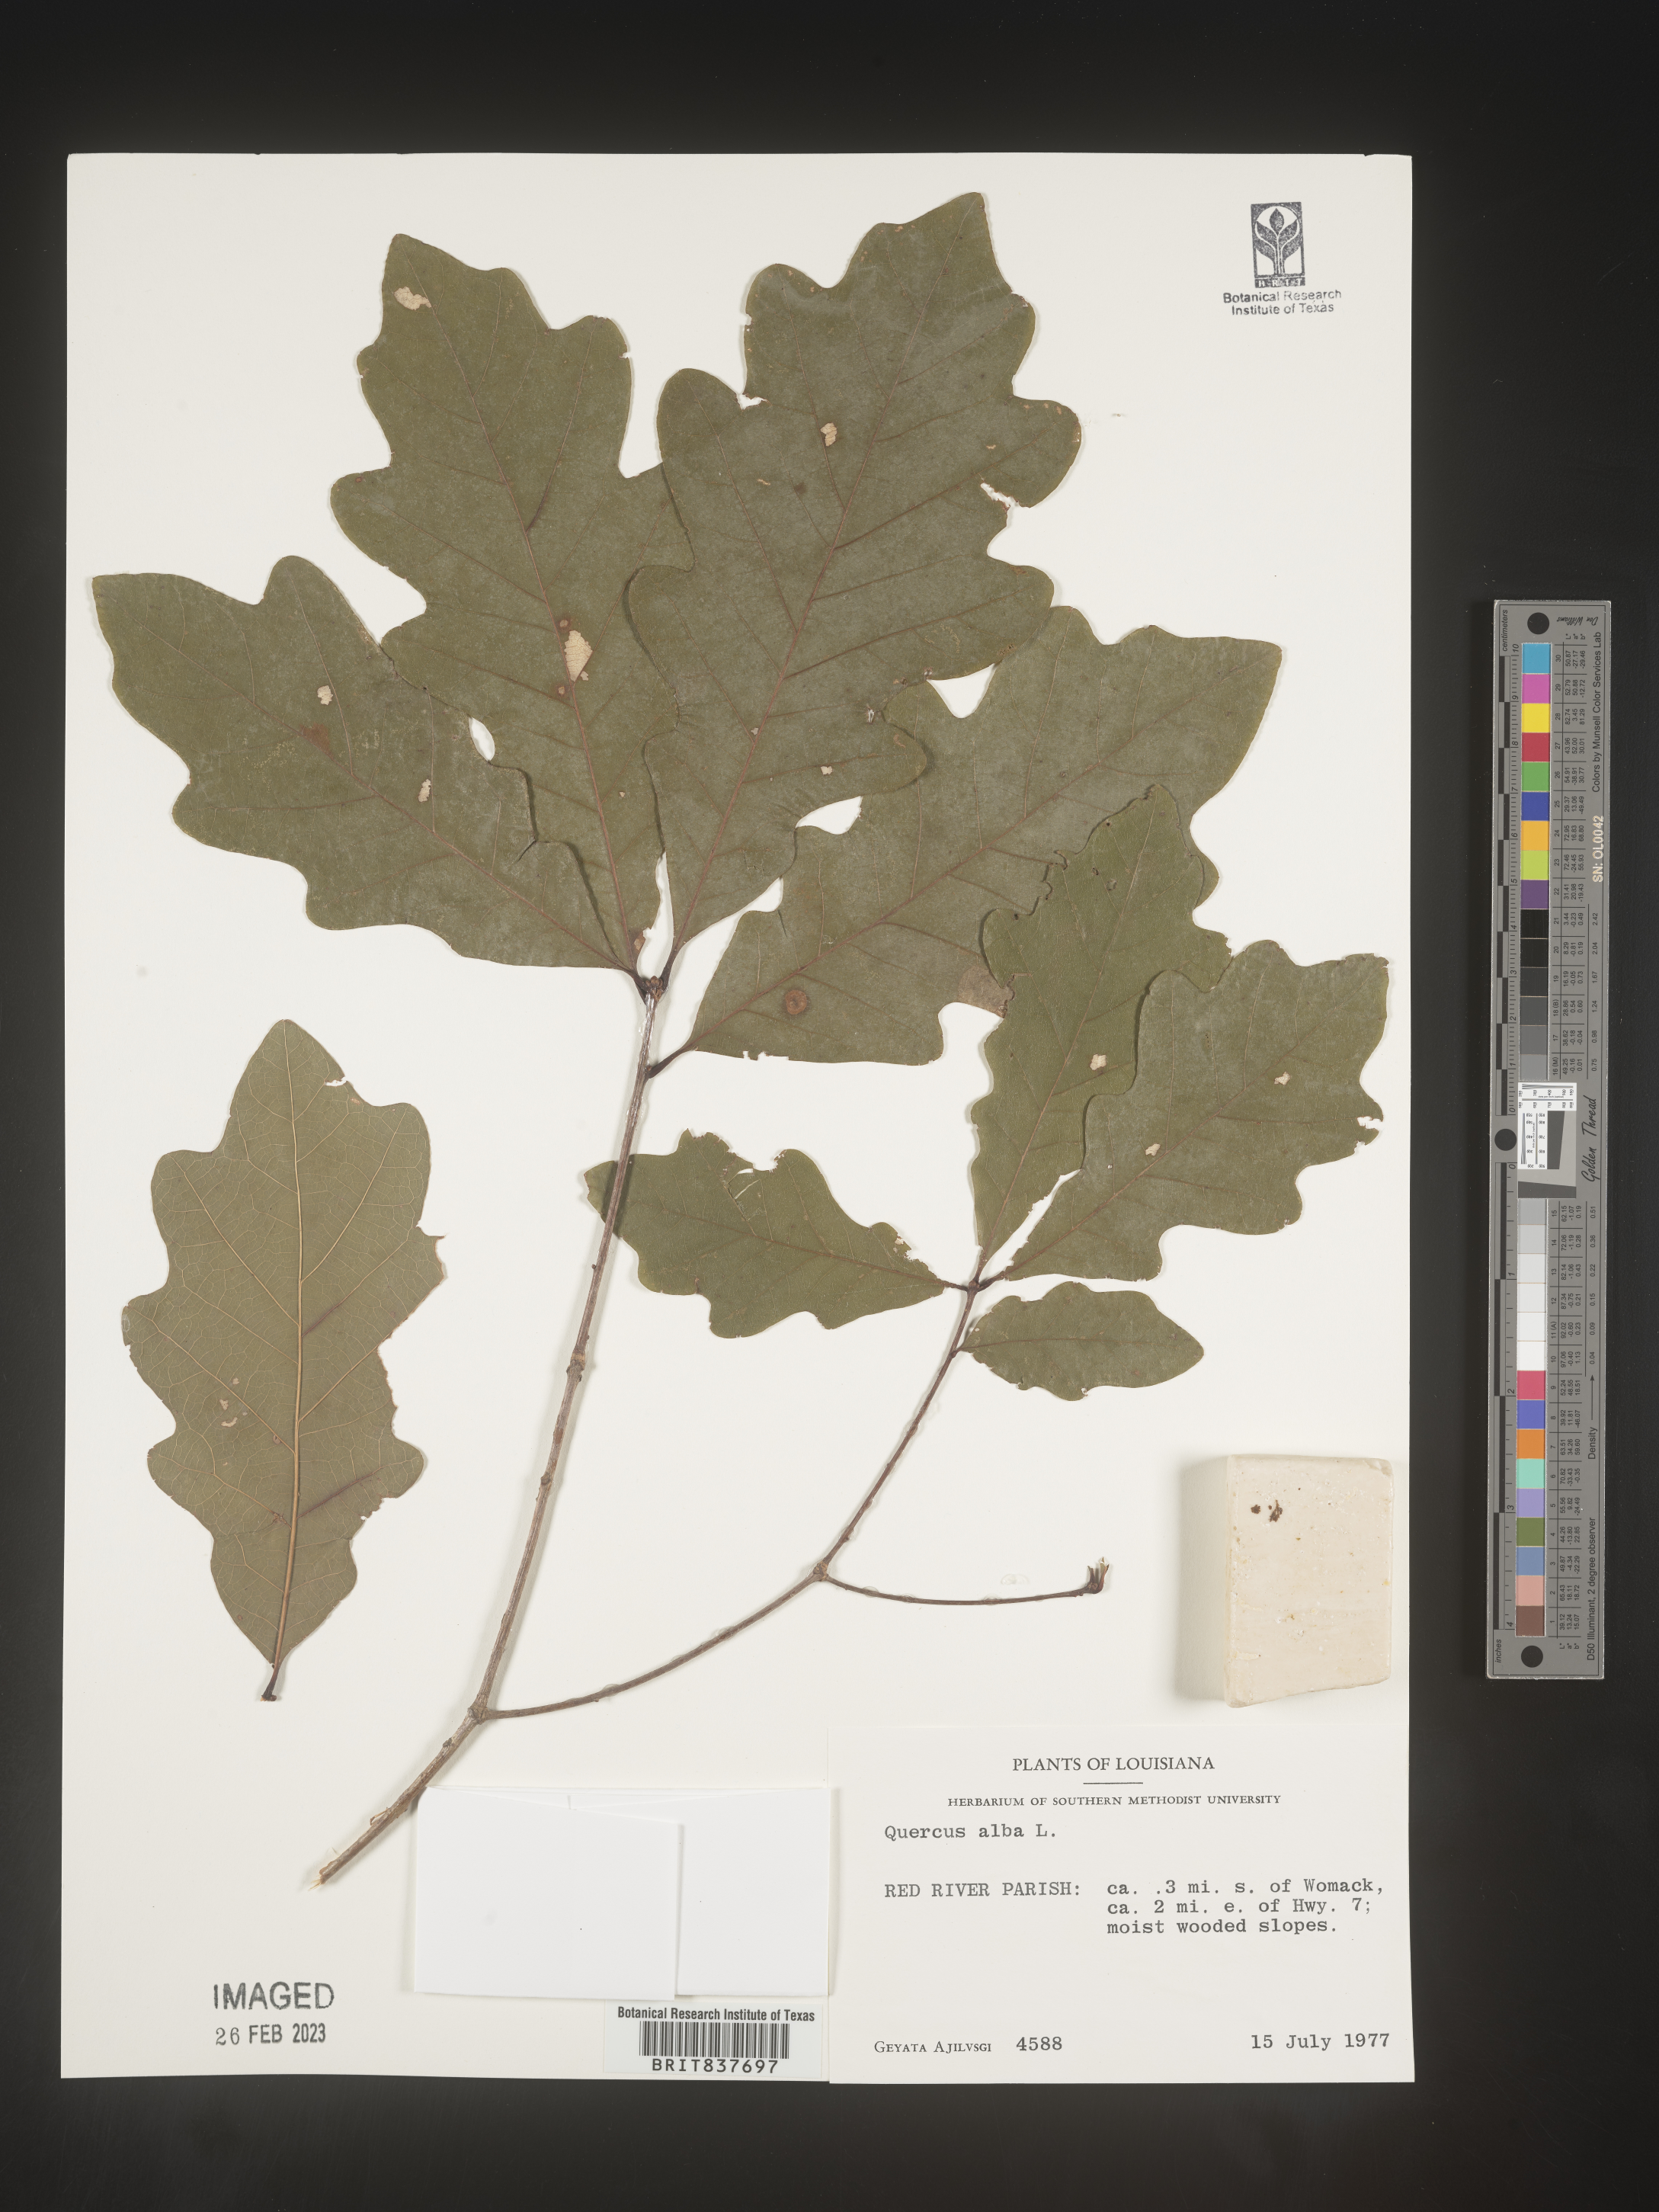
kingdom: Plantae
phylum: Tracheophyta
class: Magnoliopsida
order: Fagales
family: Fagaceae
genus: Quercus
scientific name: Quercus alba
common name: White oak
